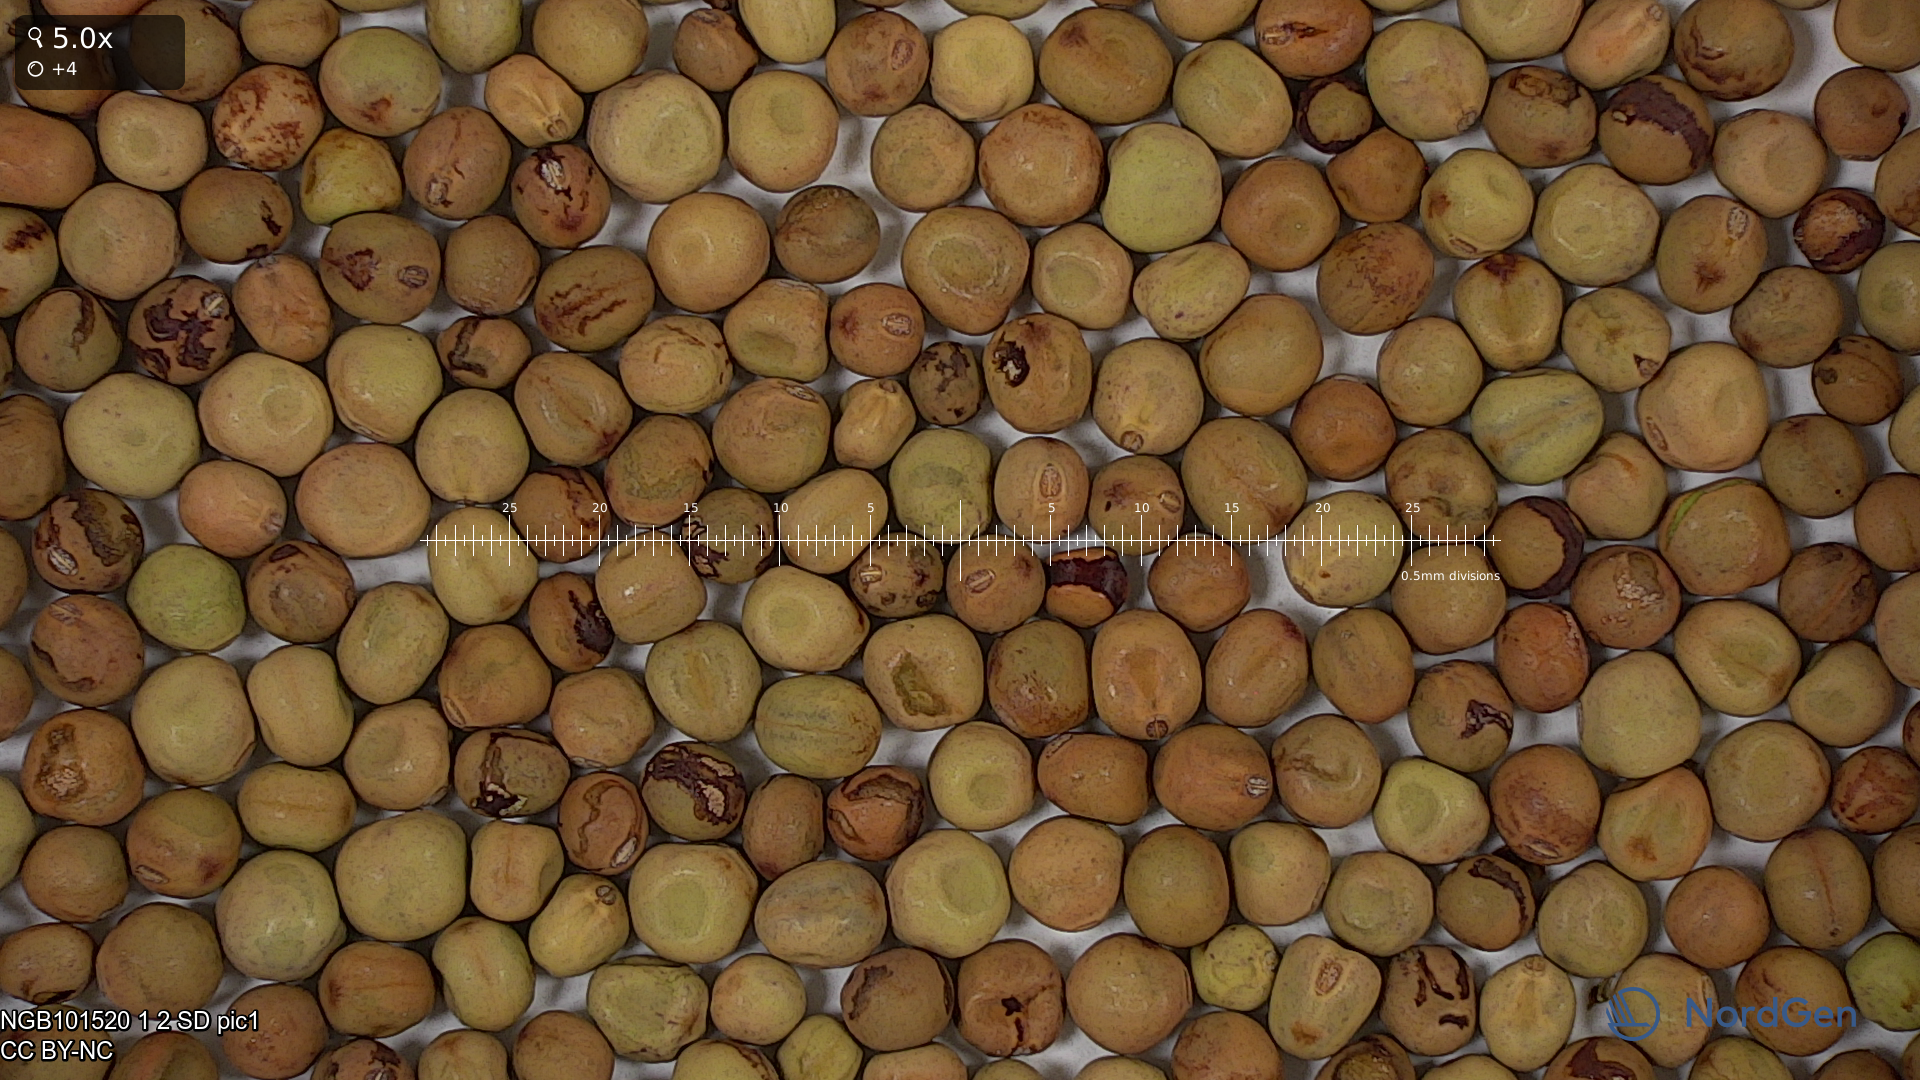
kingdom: Plantae
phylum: Tracheophyta
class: Magnoliopsida
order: Fabales
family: Fabaceae
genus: Lathyrus
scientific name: Lathyrus oleraceus
